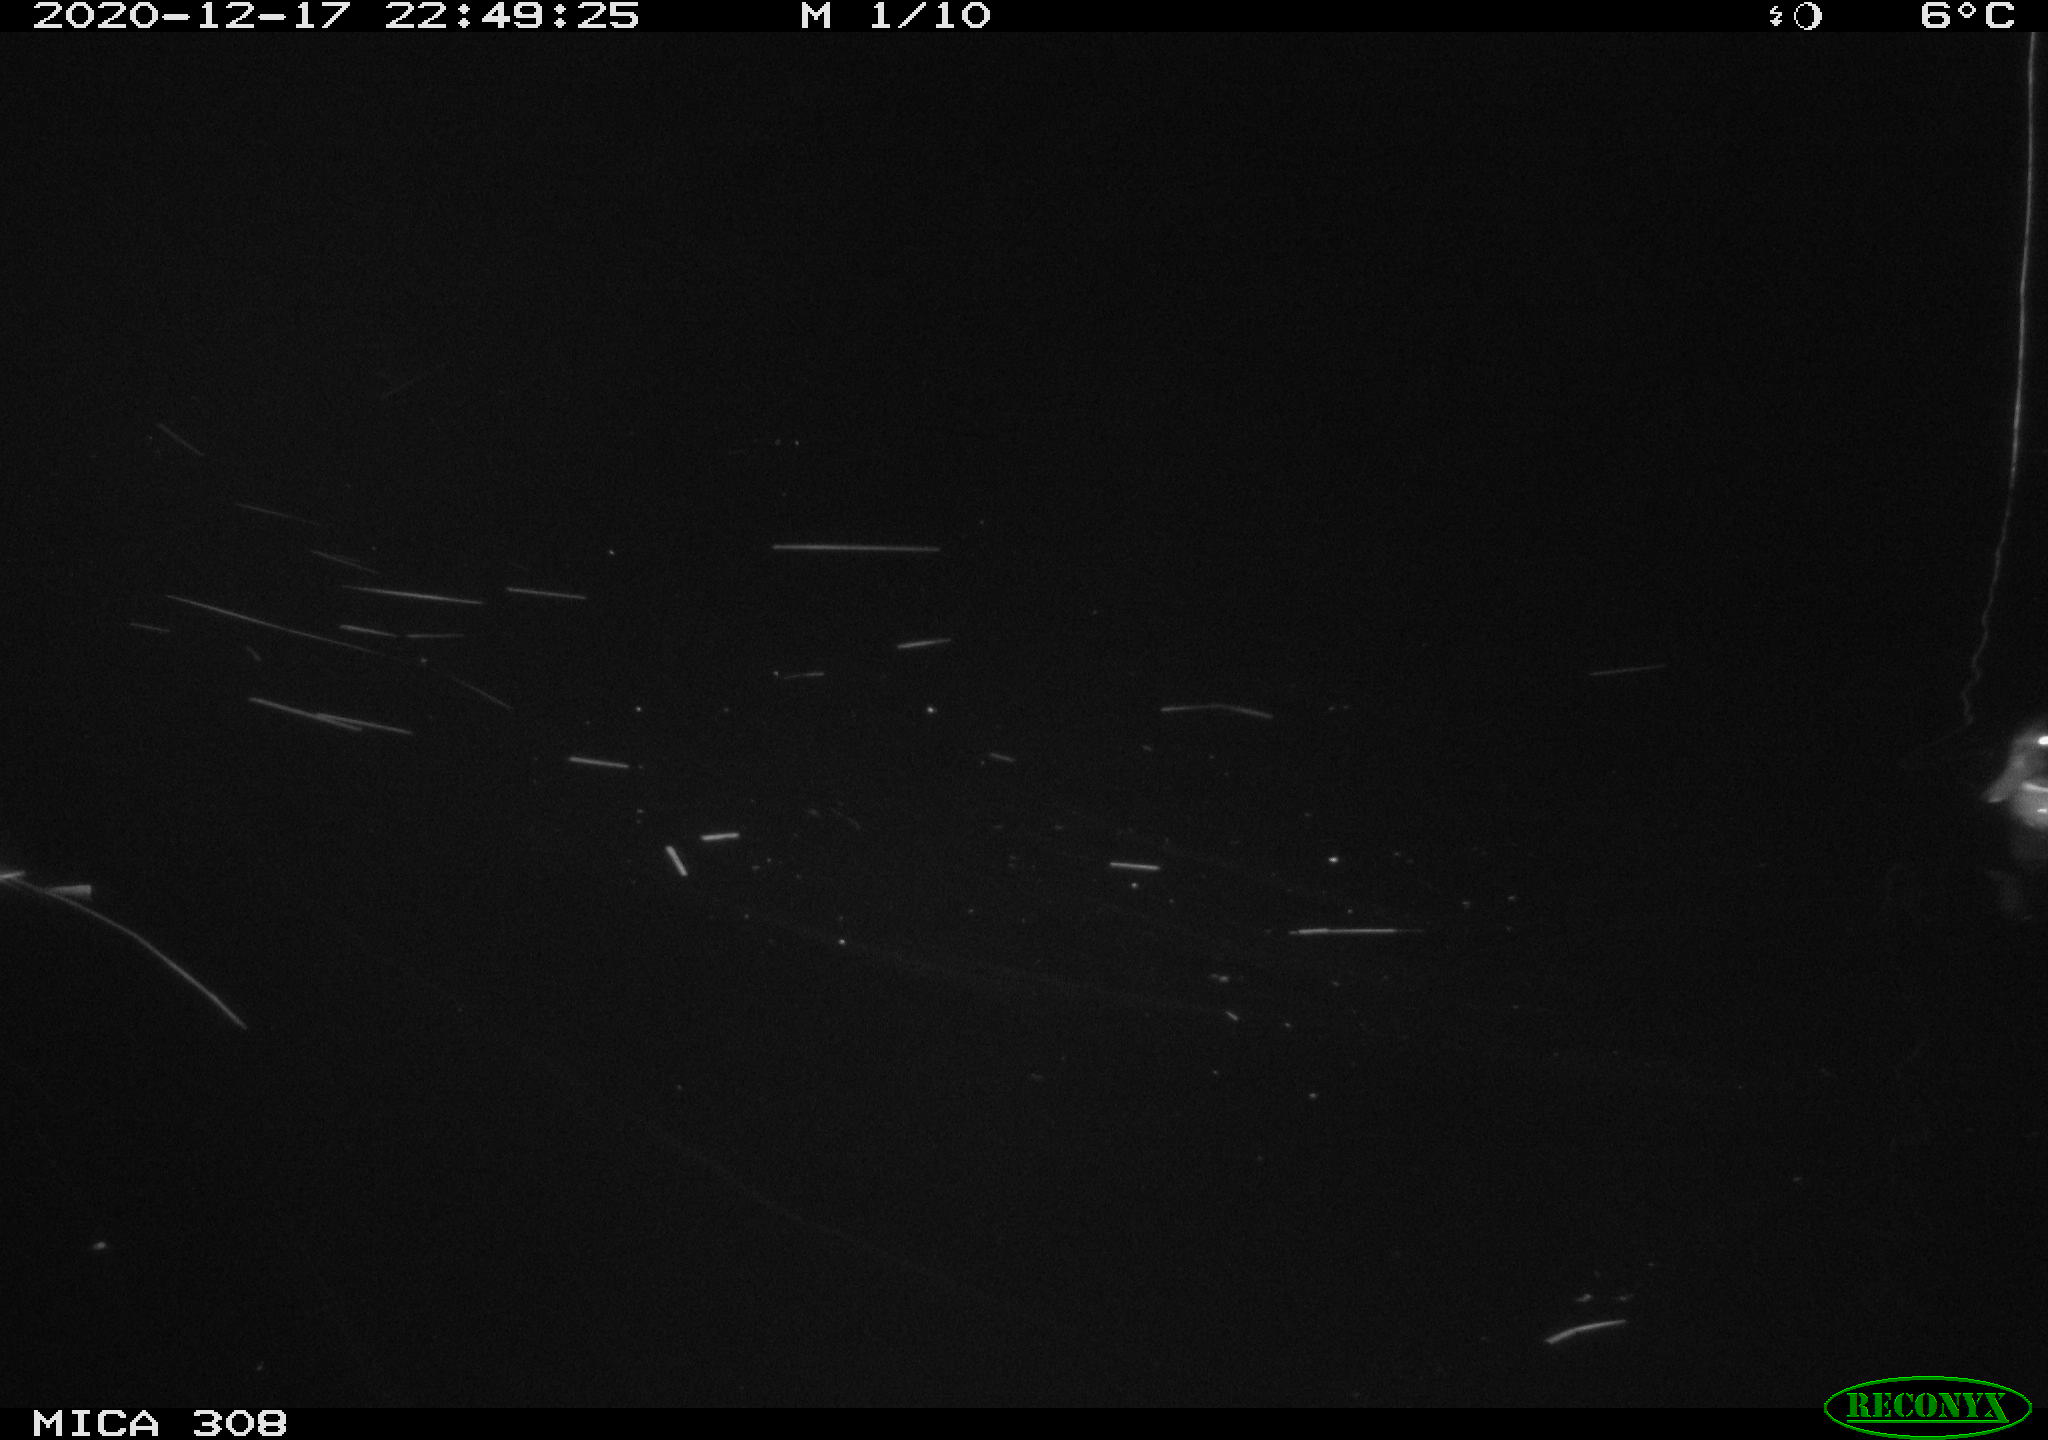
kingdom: Animalia
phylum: Chordata
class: Aves
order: Gruiformes
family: Rallidae
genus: Gallinula
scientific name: Gallinula chloropus
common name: Common moorhen
